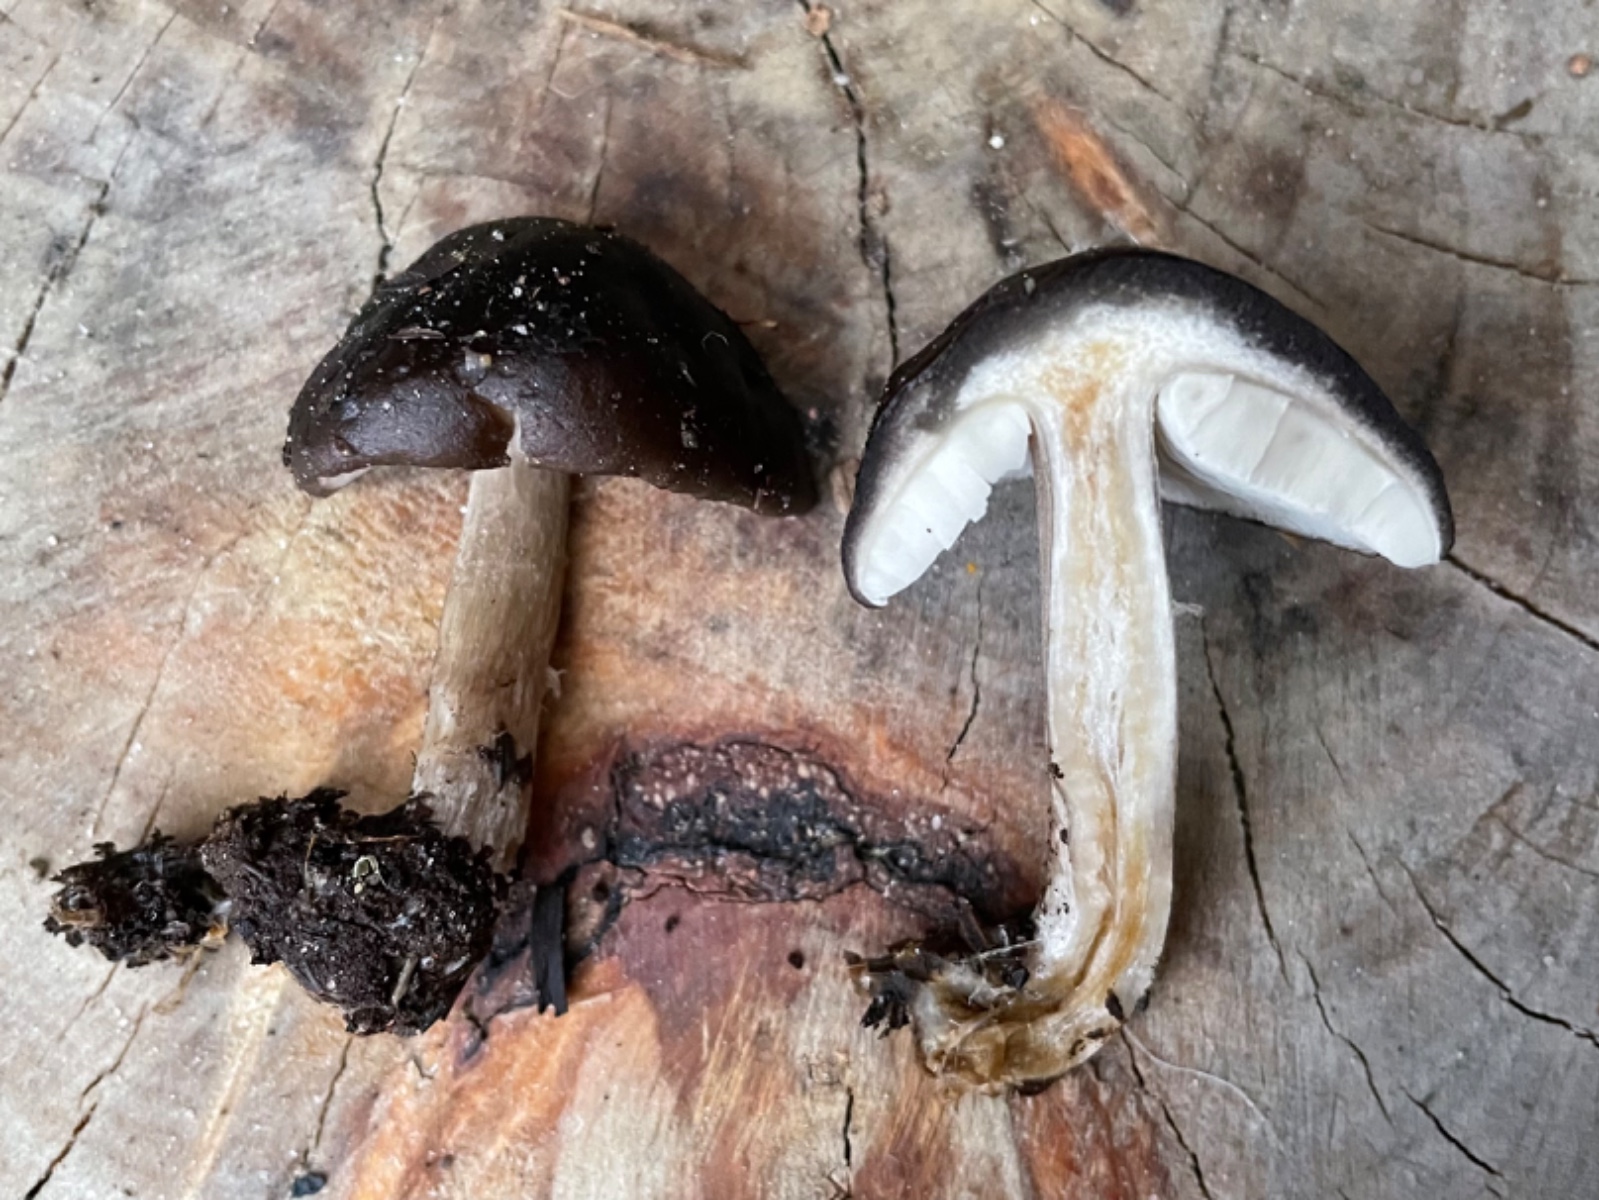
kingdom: Fungi
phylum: Basidiomycota
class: Agaricomycetes
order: Agaricales
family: Pluteaceae
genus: Pluteus
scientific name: Pluteus cervinus
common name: sodfarvet skærmhat
